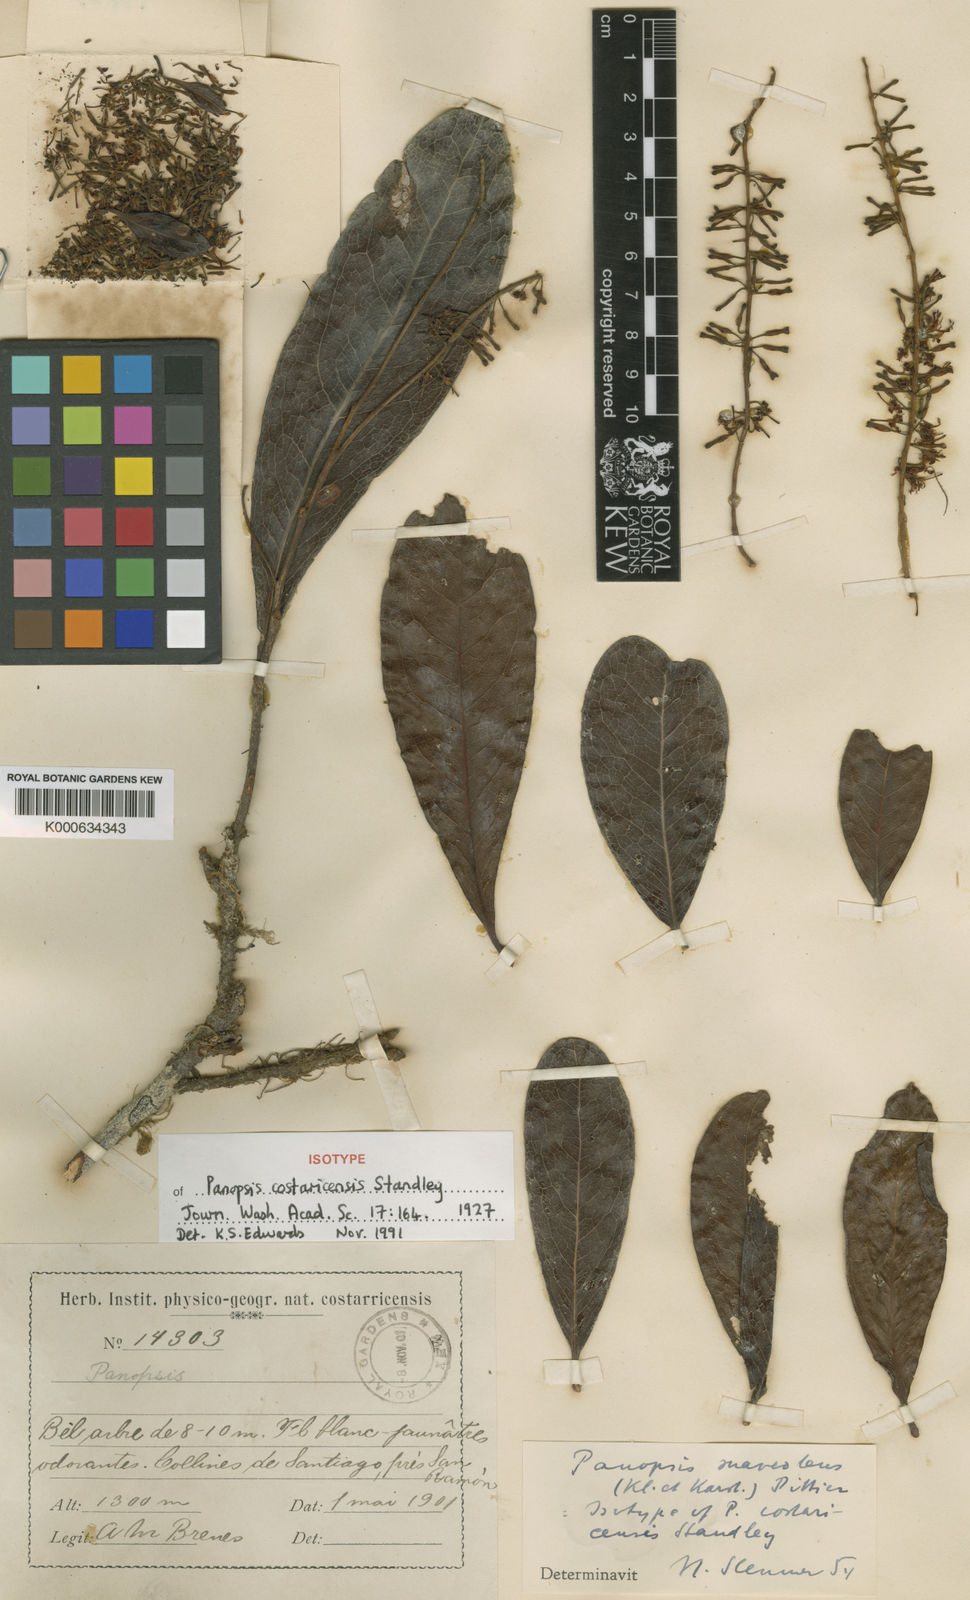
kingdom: Plantae
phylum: Tracheophyta
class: Magnoliopsida
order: Proteales
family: Proteaceae
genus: Panopsis
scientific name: Panopsis costaricensis
